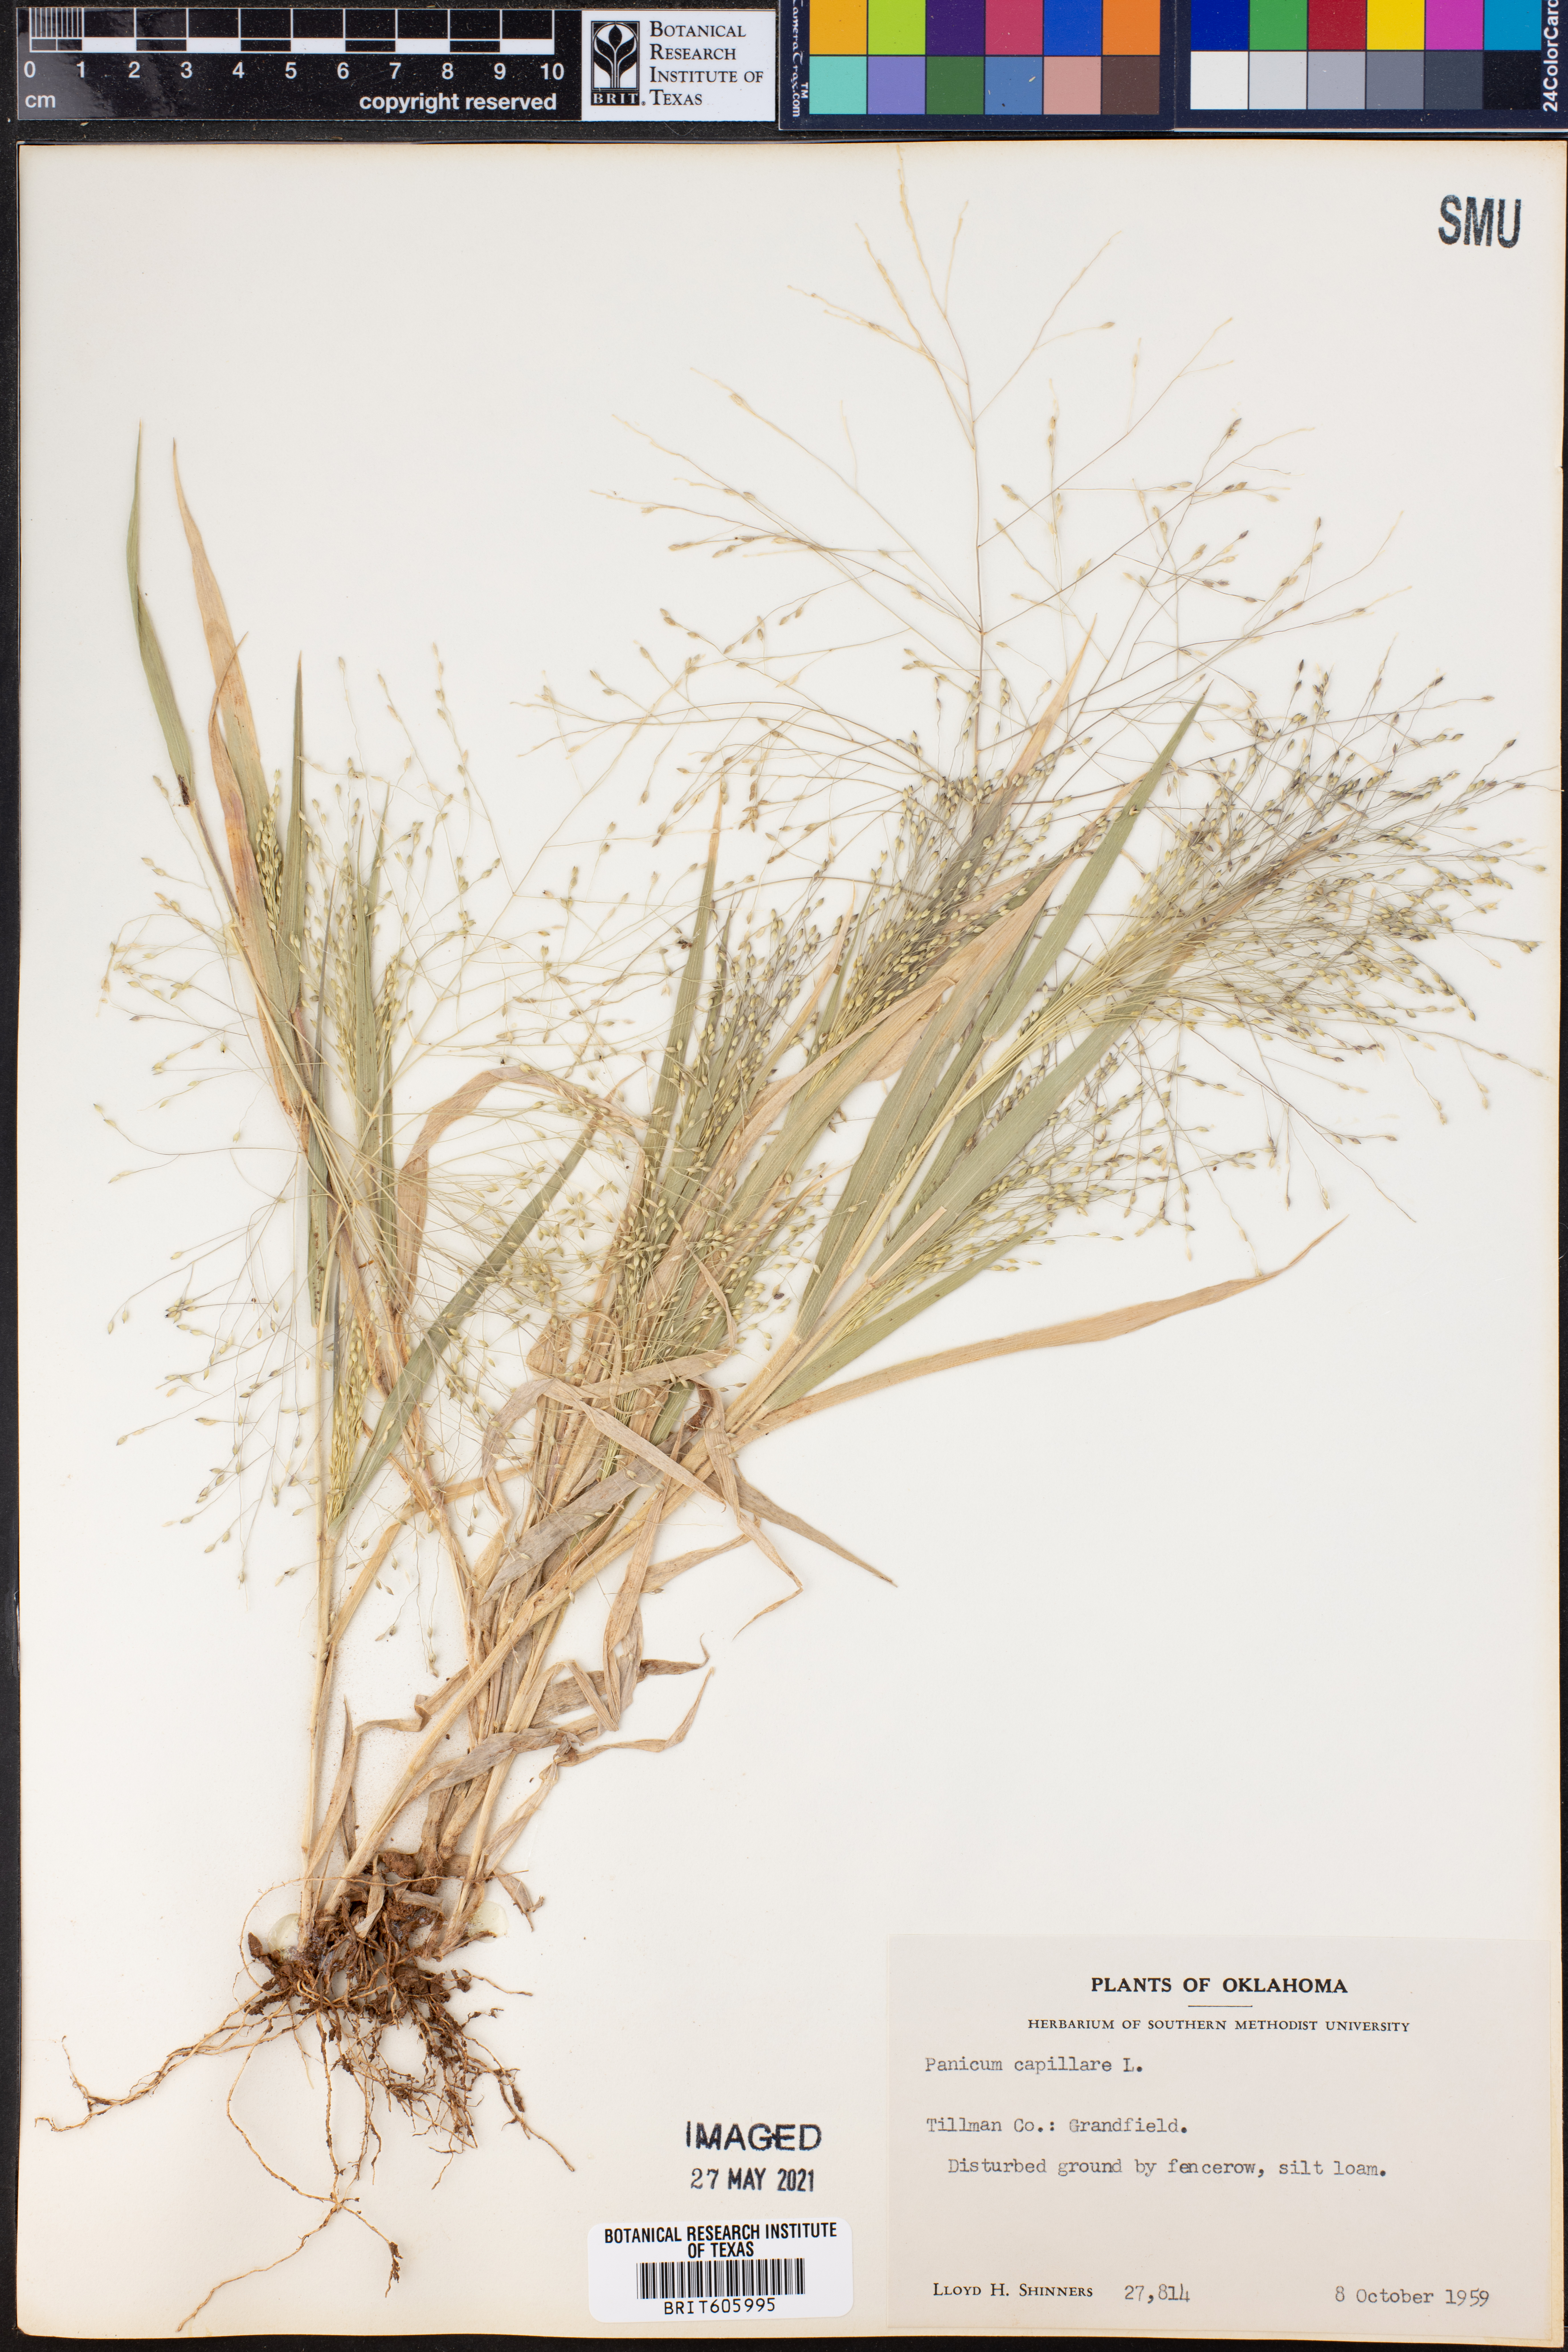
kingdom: Plantae
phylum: Tracheophyta
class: Liliopsida
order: Poales
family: Poaceae
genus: Panicum
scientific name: Panicum capillare
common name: Witch-grass
